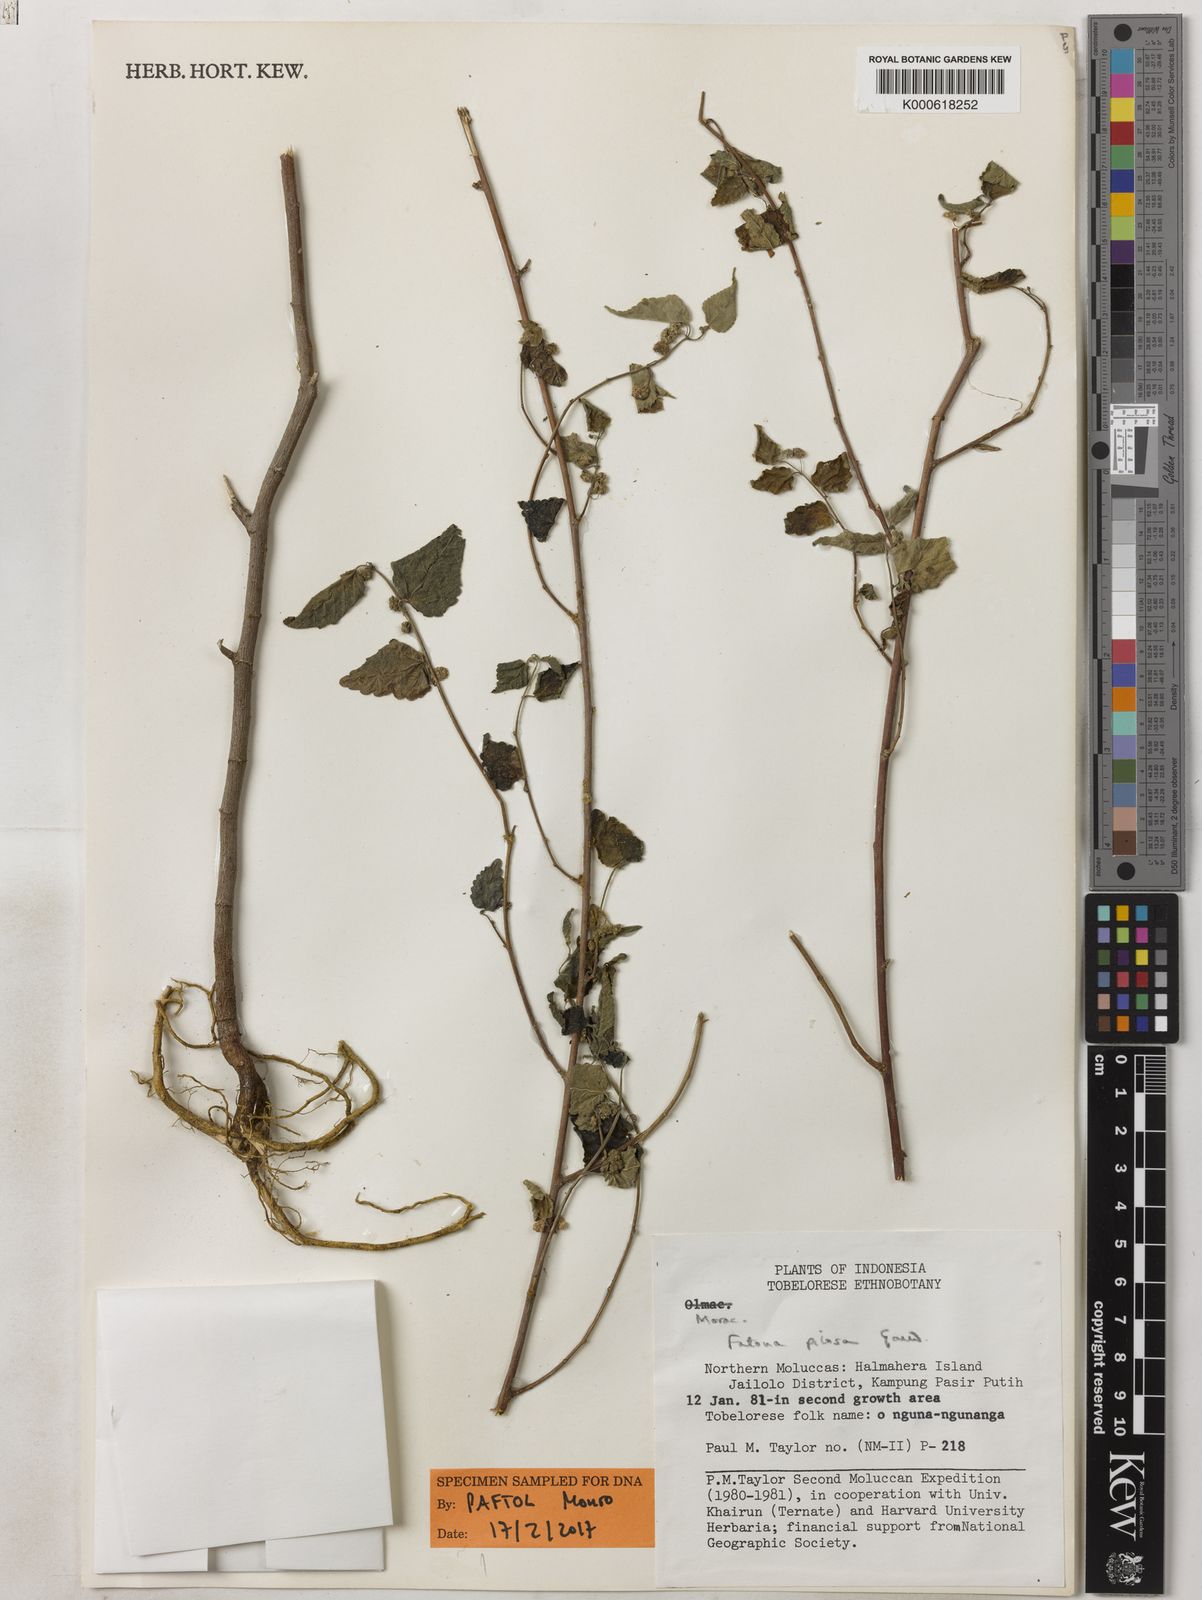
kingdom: Plantae
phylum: Tracheophyta
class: Magnoliopsida
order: Rosales
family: Moraceae
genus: Fatoua
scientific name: Fatoua villosa
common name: Hairy crabweed
